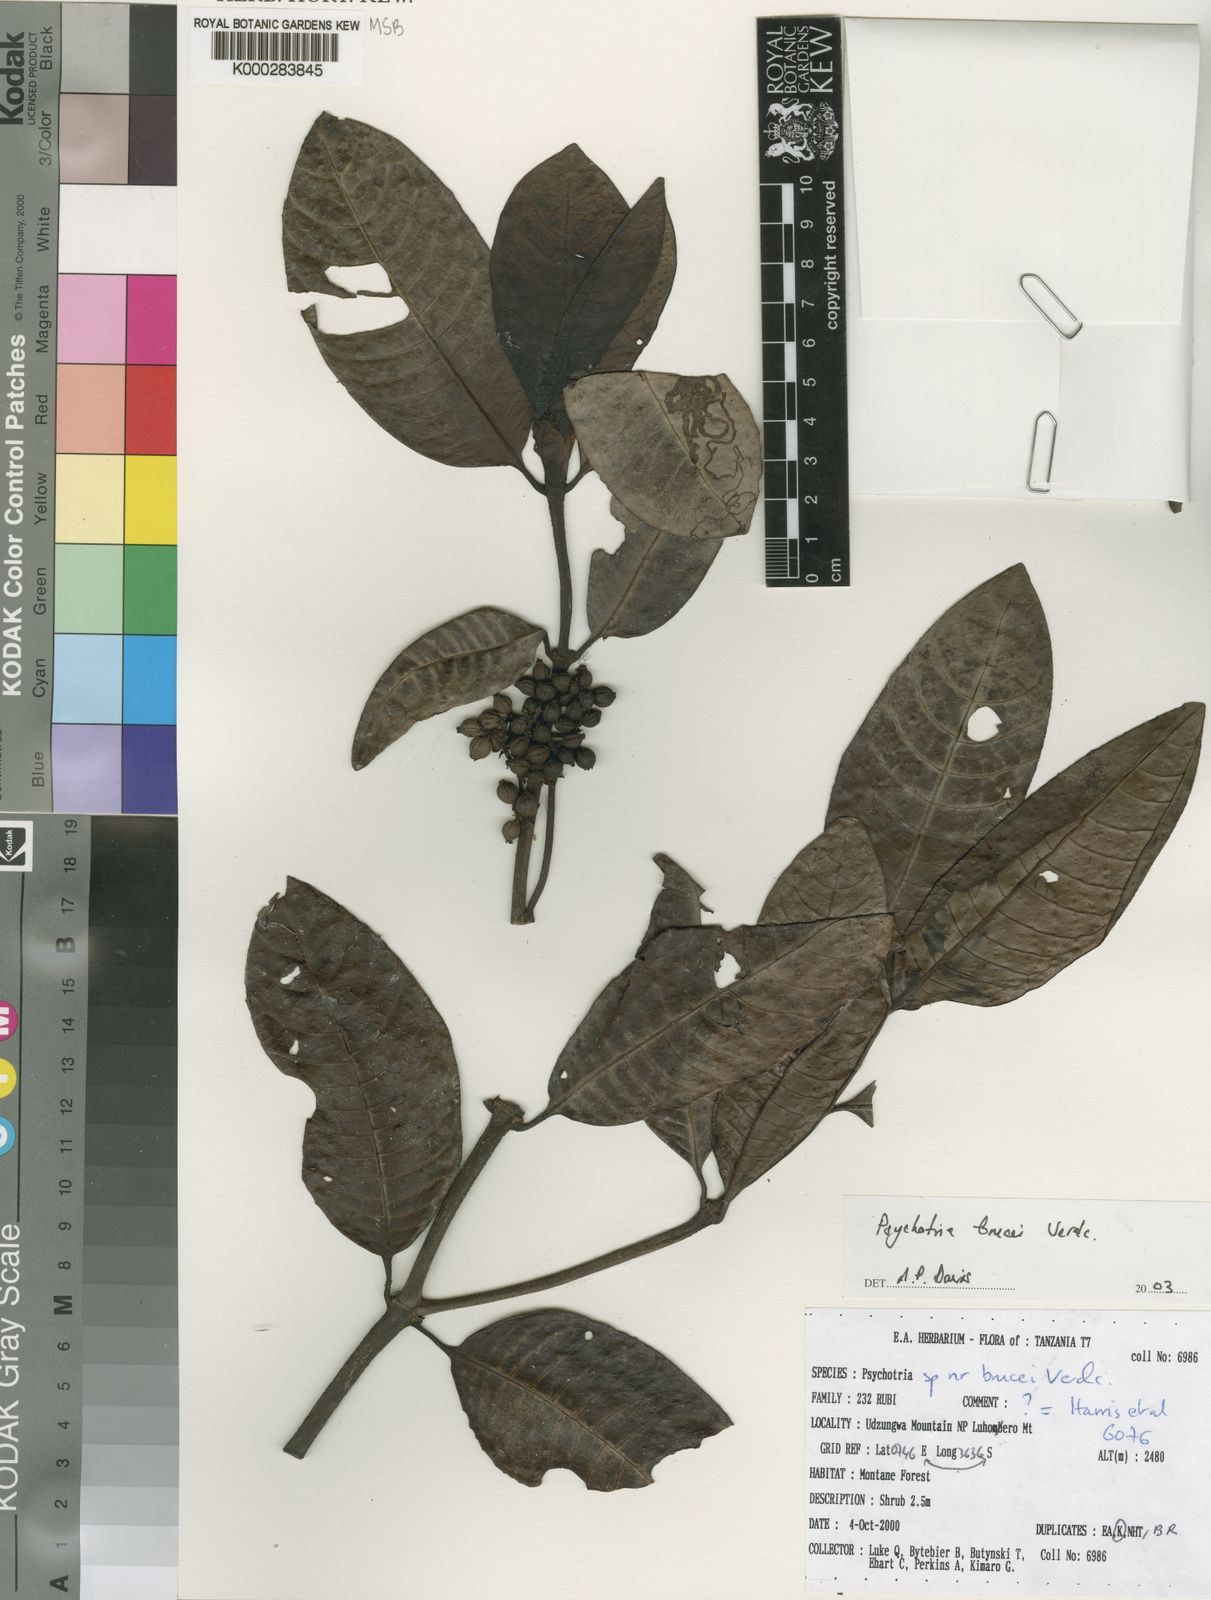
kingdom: Plantae
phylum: Tracheophyta
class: Magnoliopsida
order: Gentianales
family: Rubiaceae
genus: Psychotria
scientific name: Psychotria brucei
